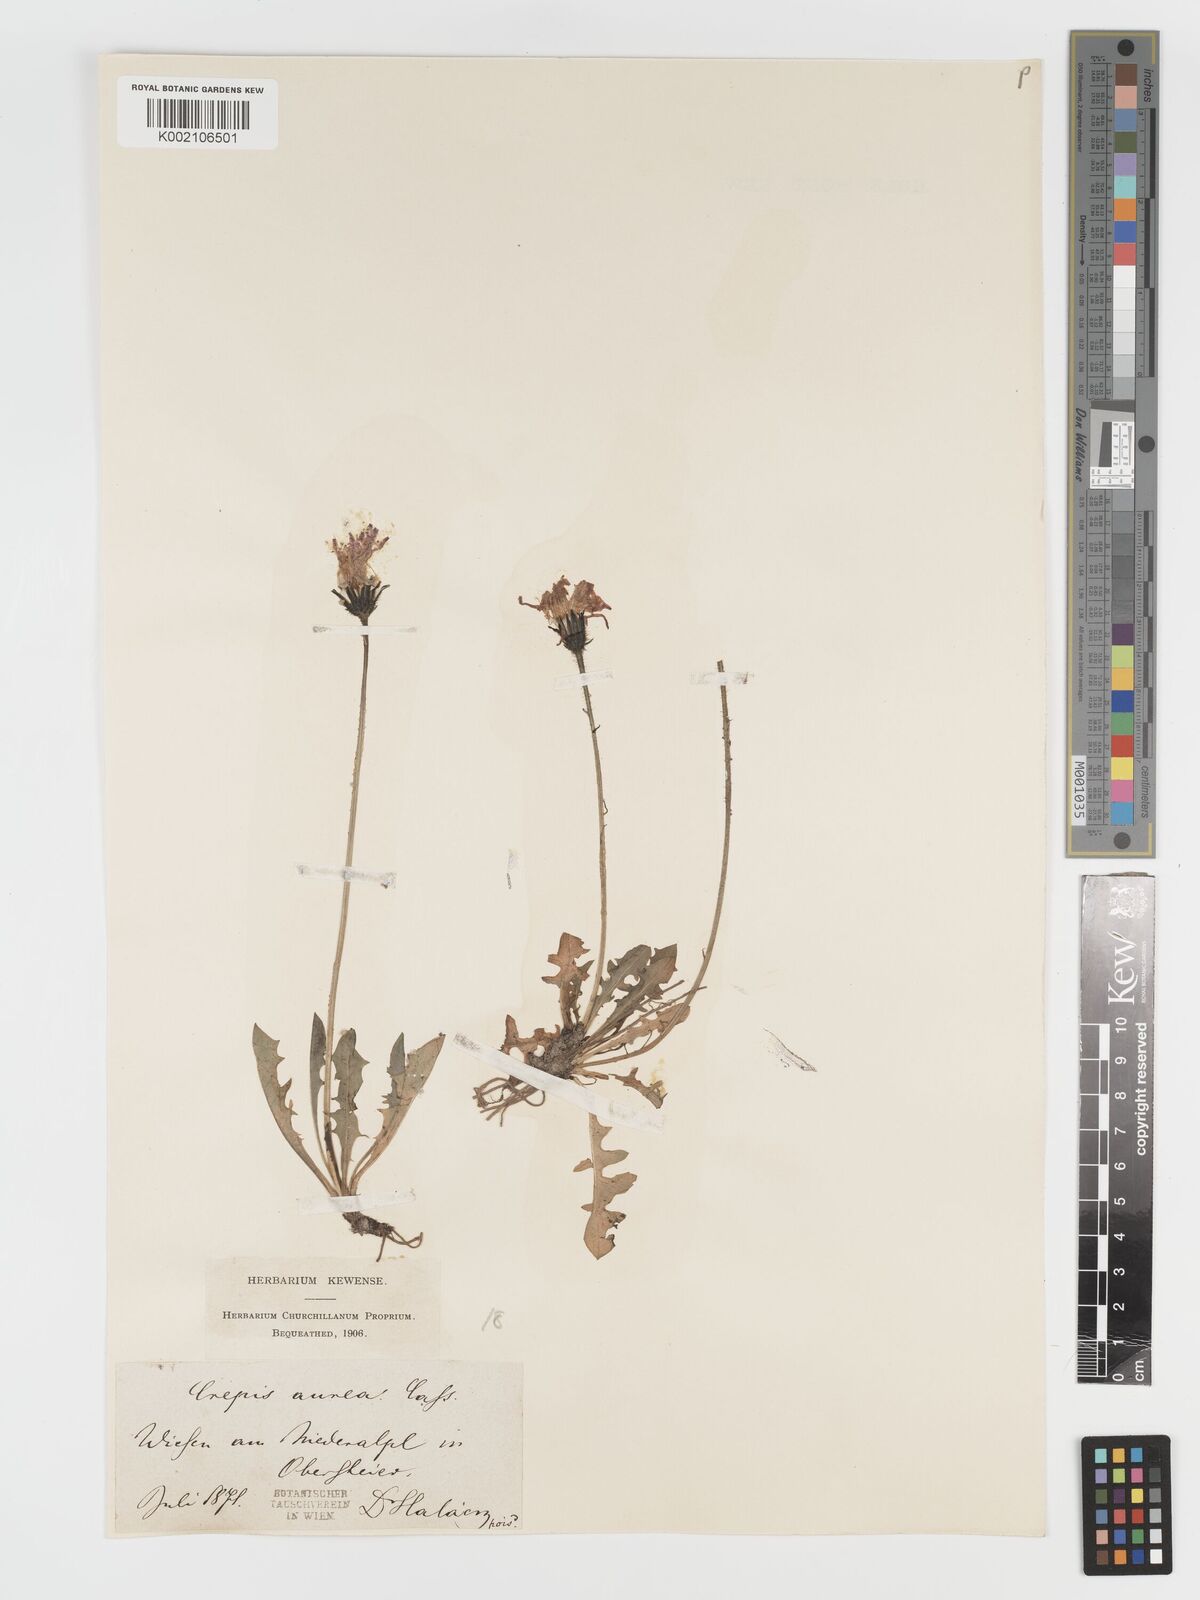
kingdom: Plantae
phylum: Tracheophyta
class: Magnoliopsida
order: Asterales
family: Asteraceae
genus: Crepis
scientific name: Crepis aurea
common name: Golden hawk's-beard
